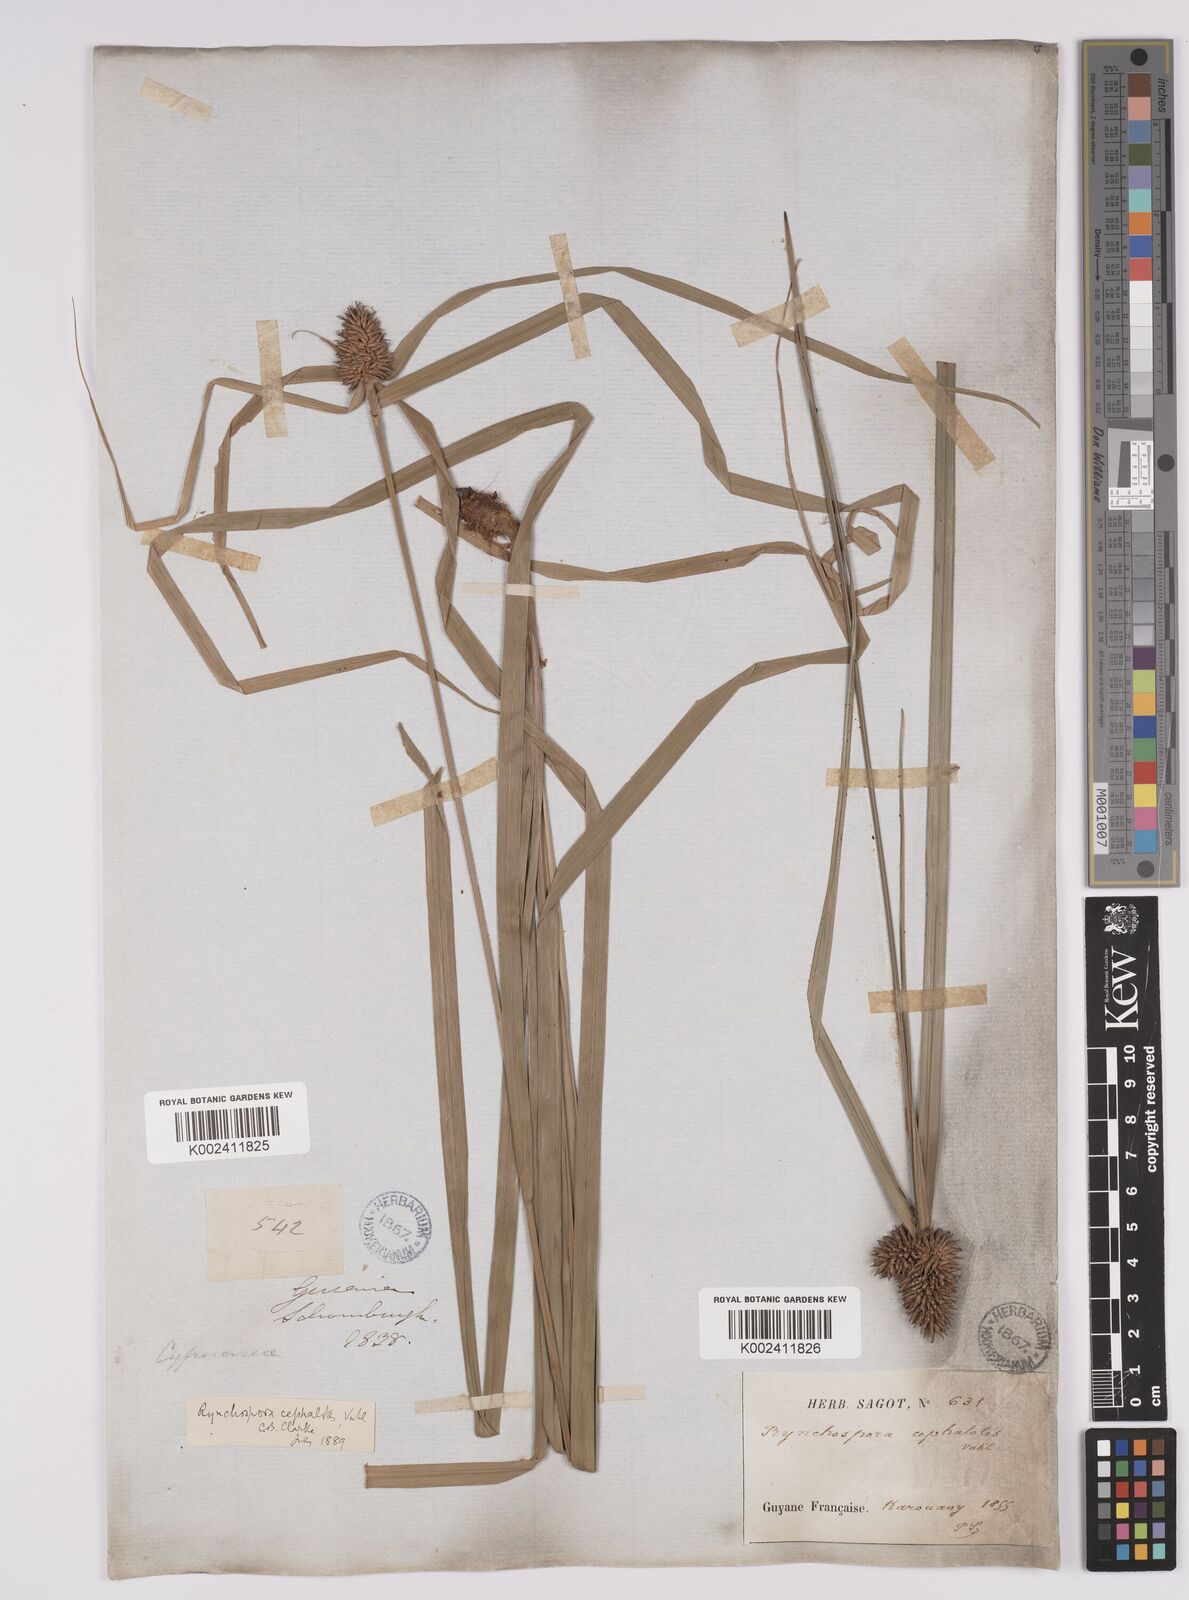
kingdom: Plantae
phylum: Tracheophyta
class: Liliopsida
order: Poales
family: Cyperaceae
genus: Rhynchospora
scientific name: Rhynchospora cephalotes
